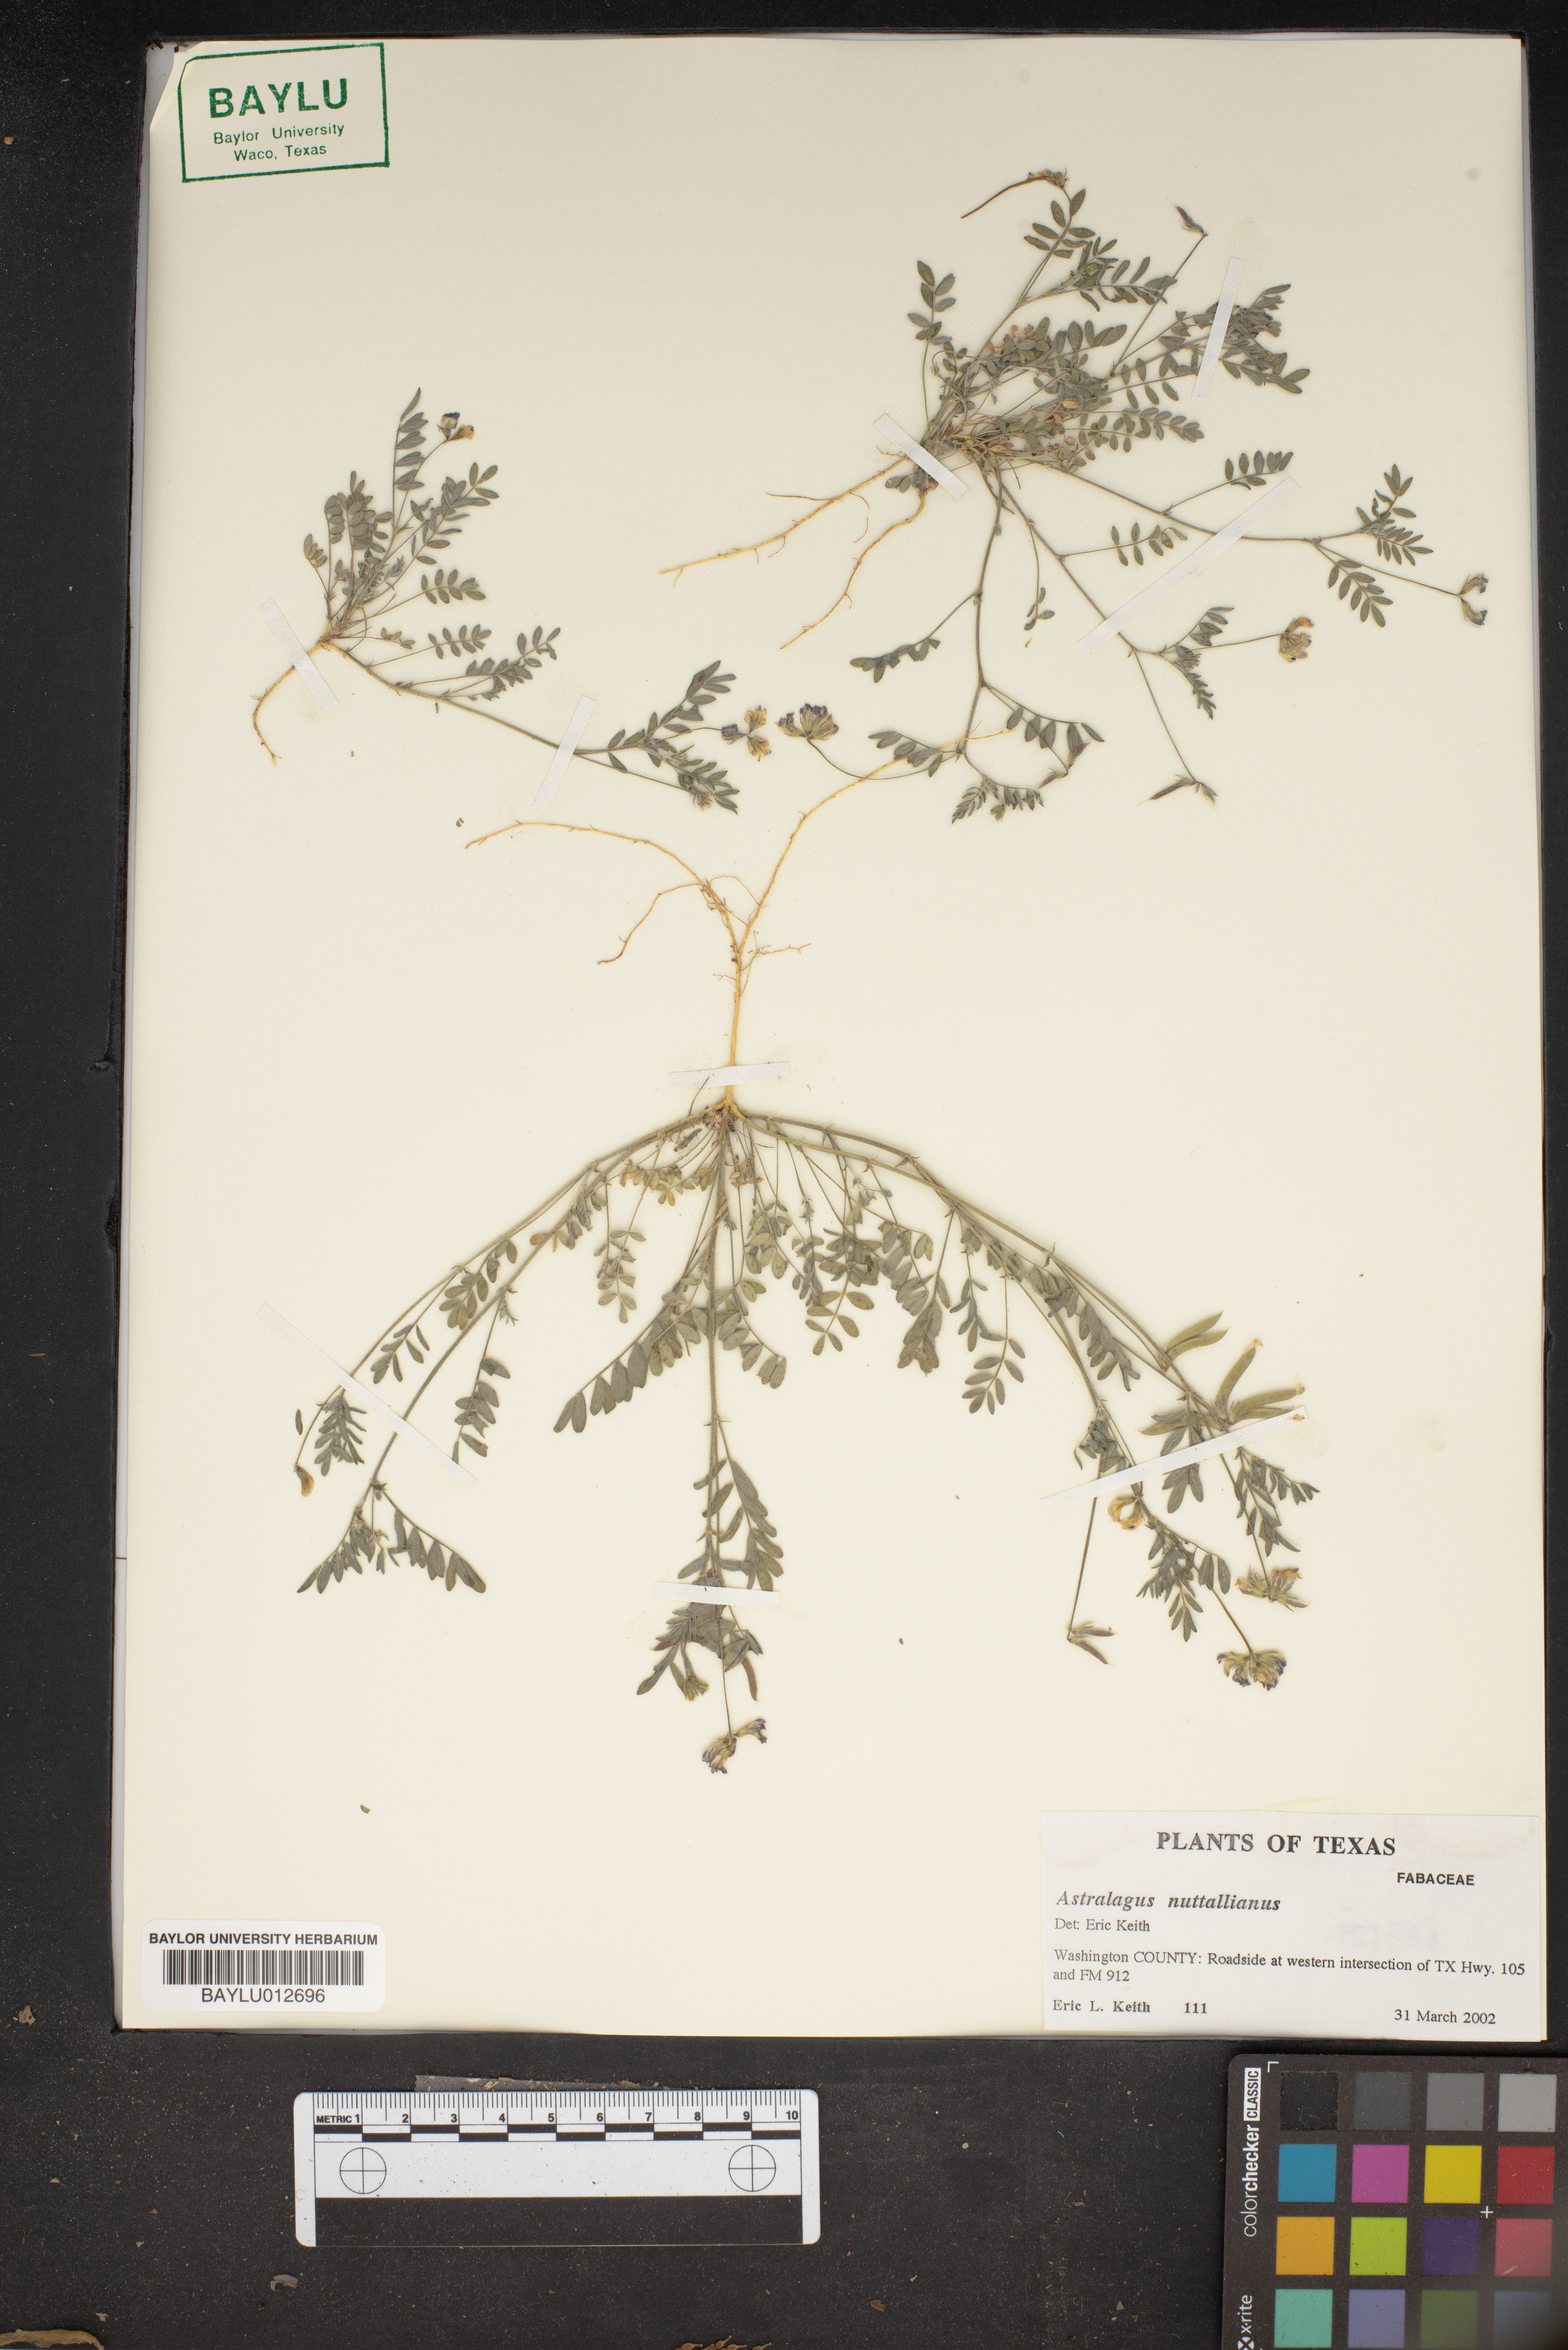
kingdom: Plantae
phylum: Tracheophyta
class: Magnoliopsida
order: Fabales
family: Fabaceae
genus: Astragalus
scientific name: Astragalus nuttallianus
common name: Smallflowered milkvetch
